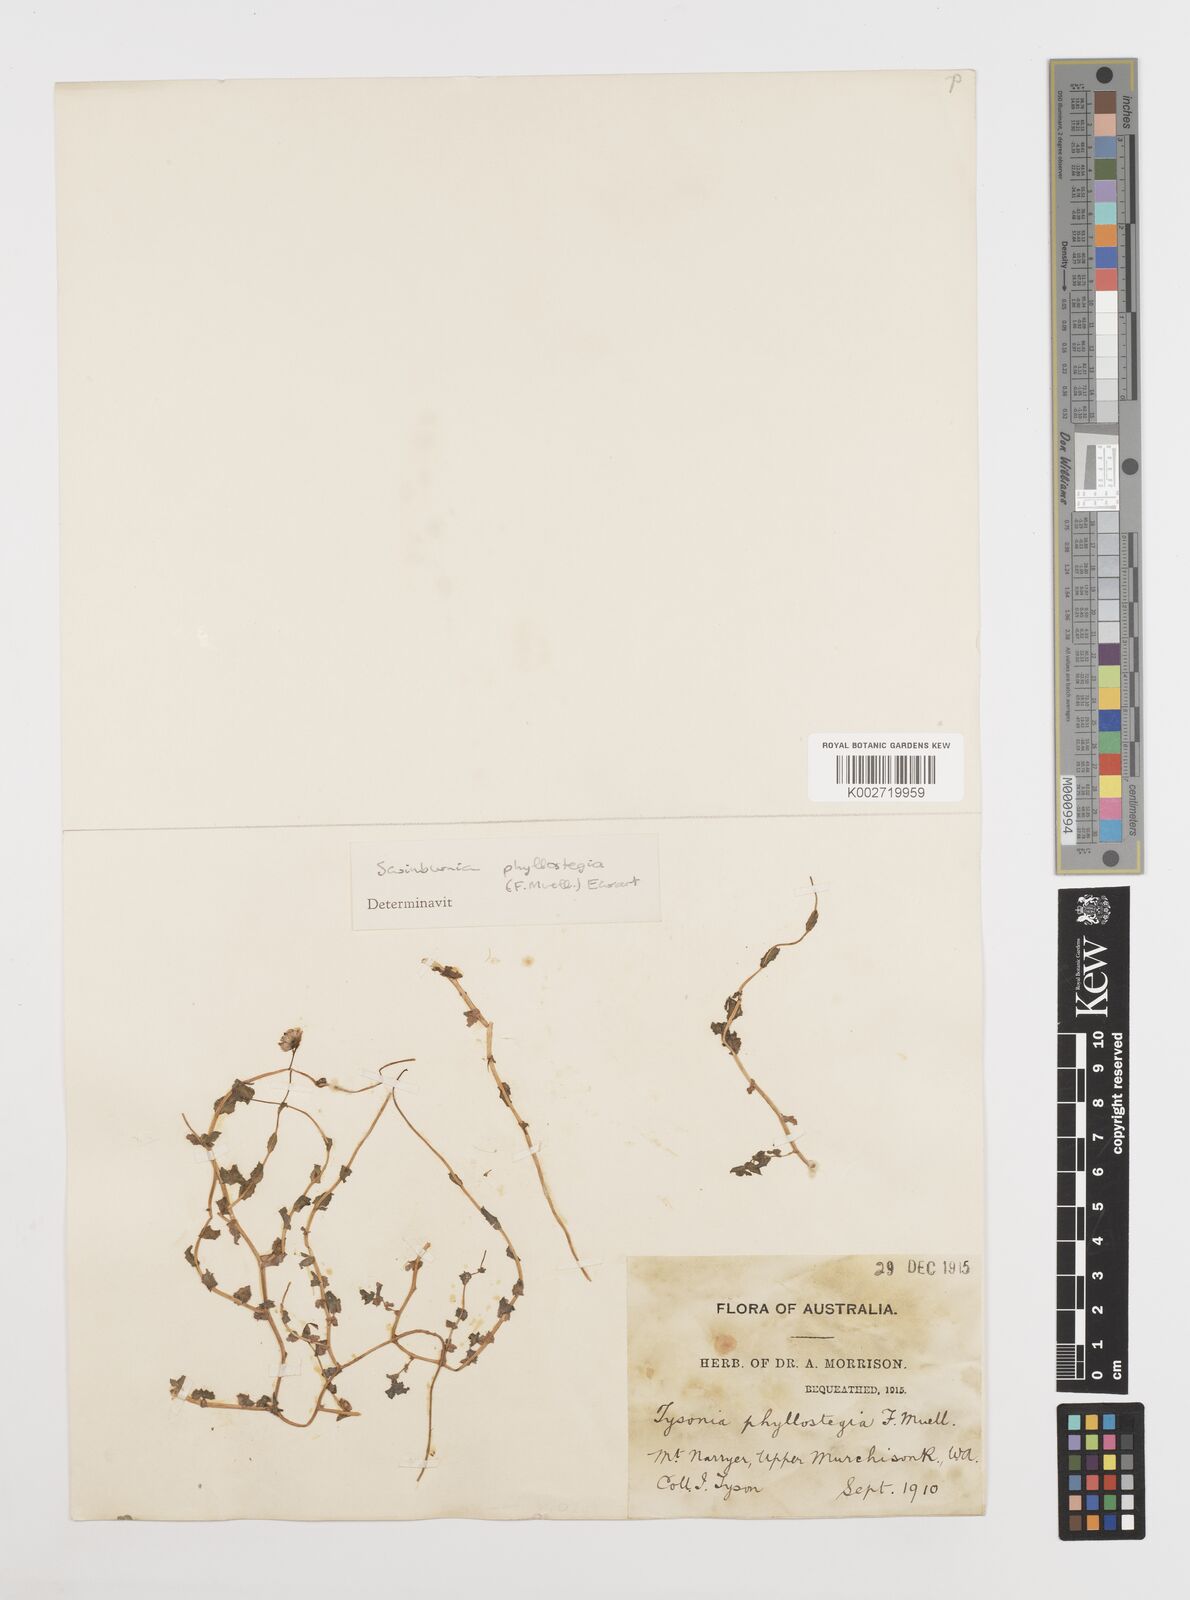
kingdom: Plantae
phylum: Tracheophyta
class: Magnoliopsida
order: Asterales
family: Asteraceae
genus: Neotysonia
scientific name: Neotysonia phyllostegia
